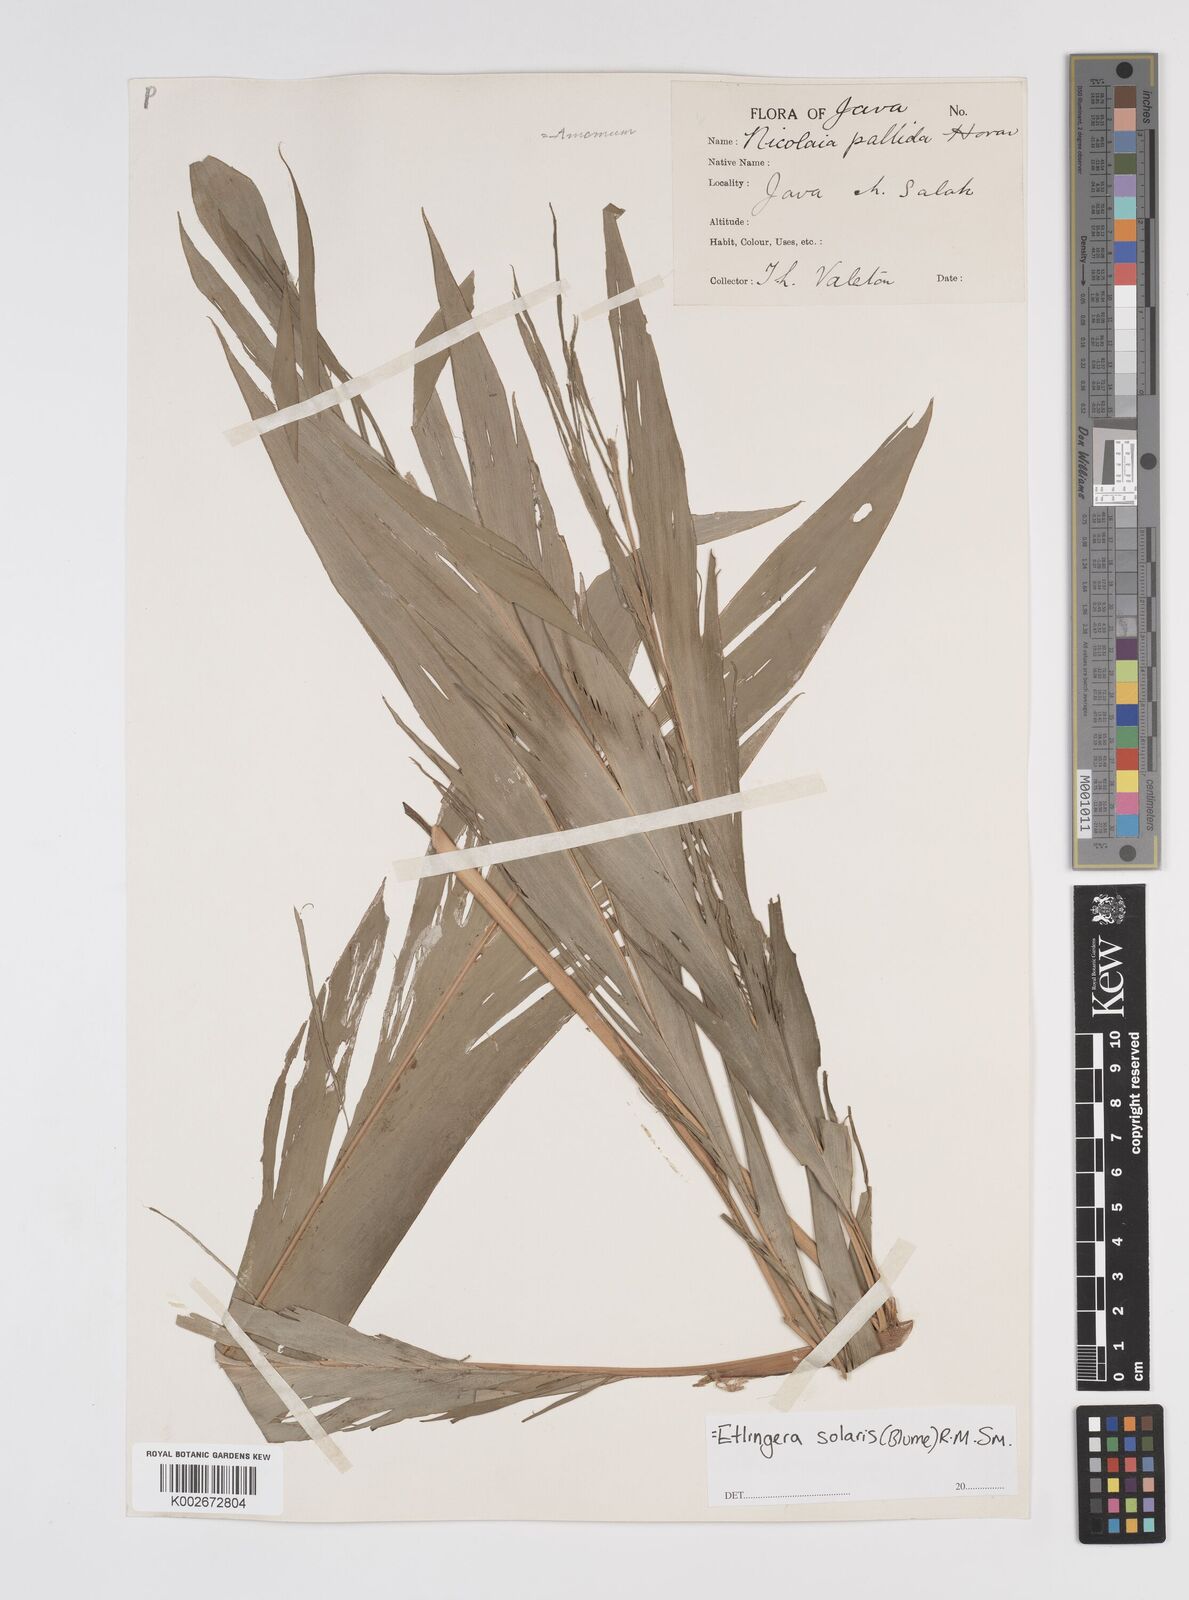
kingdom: Plantae
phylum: Tracheophyta
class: Liliopsida
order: Zingiberales
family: Zingiberaceae
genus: Etlingera
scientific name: Etlingera solaris
